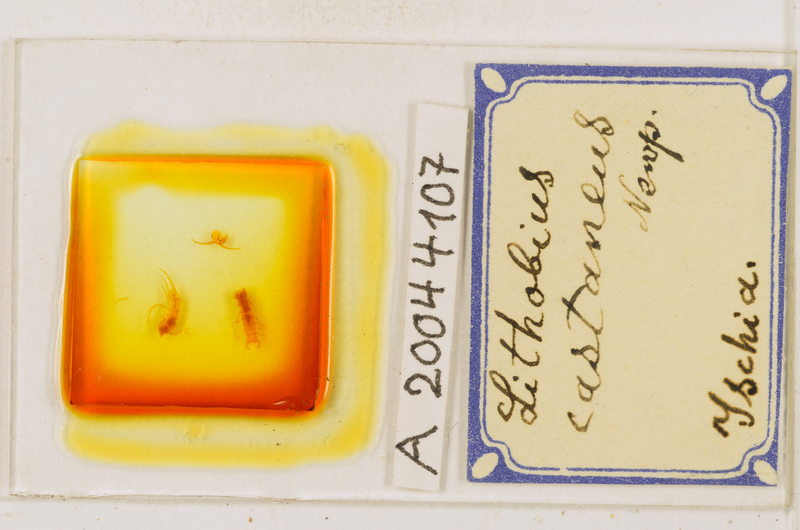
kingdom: Animalia
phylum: Arthropoda
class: Chilopoda
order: Lithobiomorpha
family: Lithobiidae
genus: Lithobius
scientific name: Lithobius castaneus
